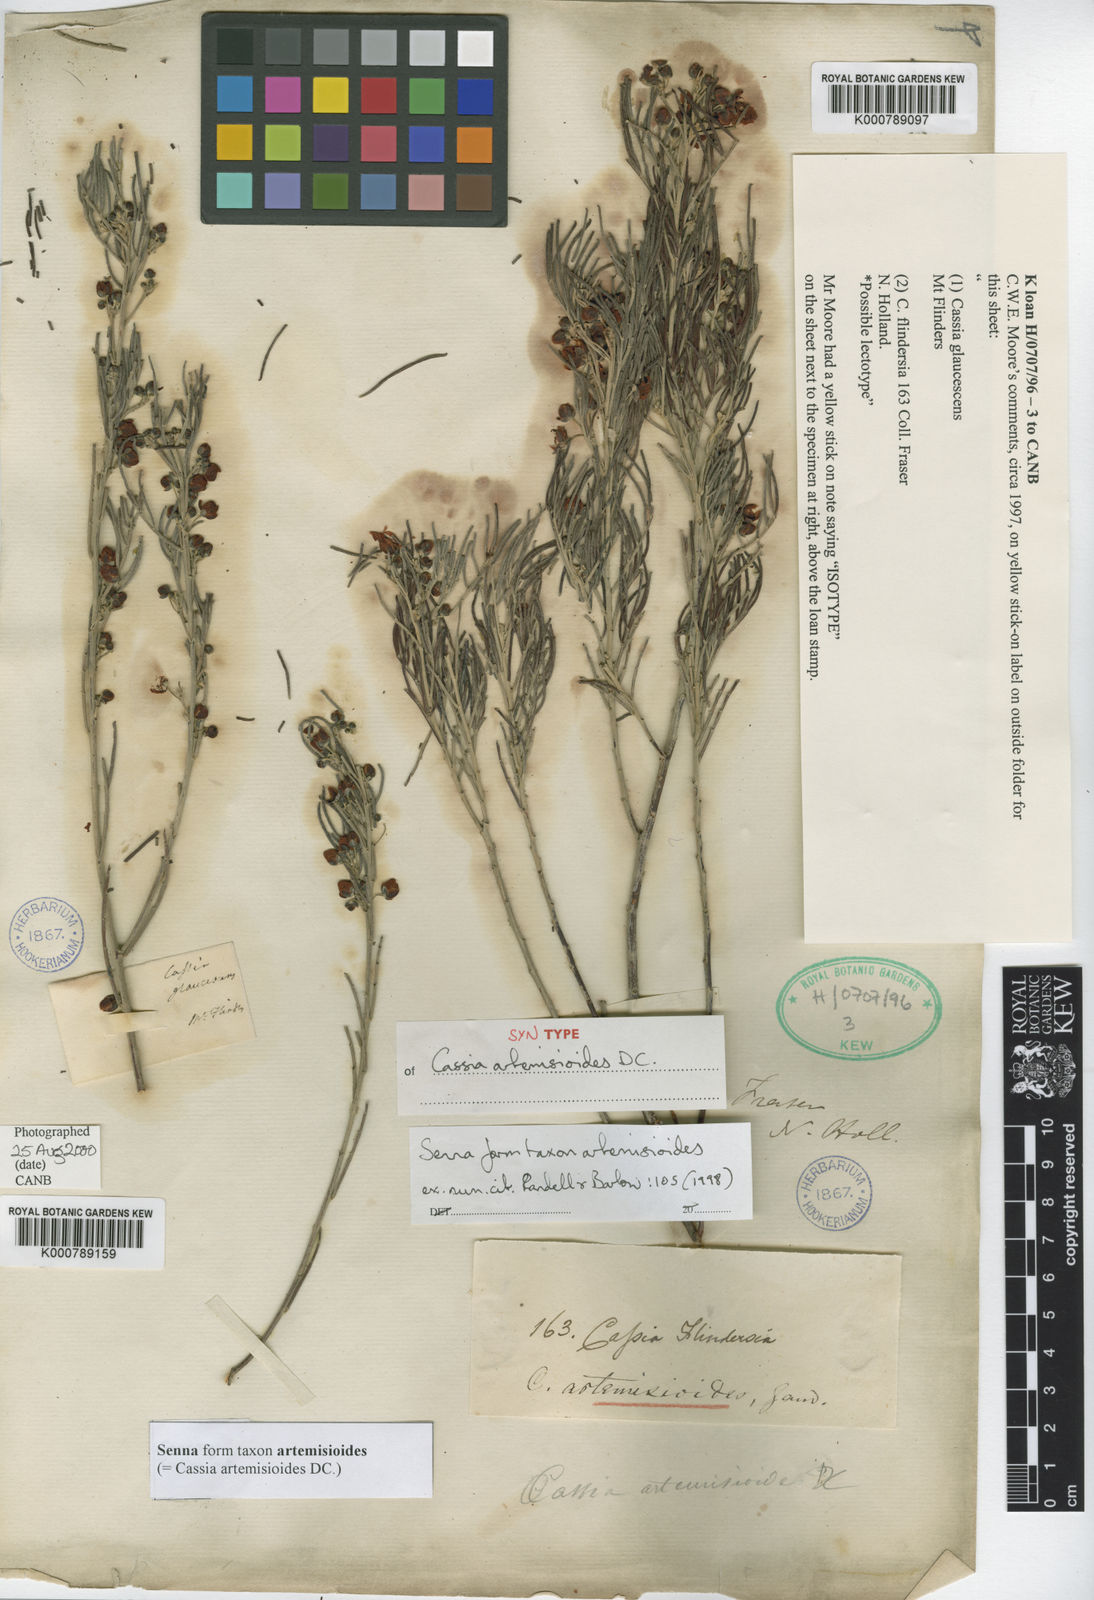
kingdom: Plantae
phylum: Tracheophyta
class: Magnoliopsida
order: Fabales
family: Fabaceae
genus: Senna
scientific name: Senna artemisioides
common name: Burnt-leaved acacia
